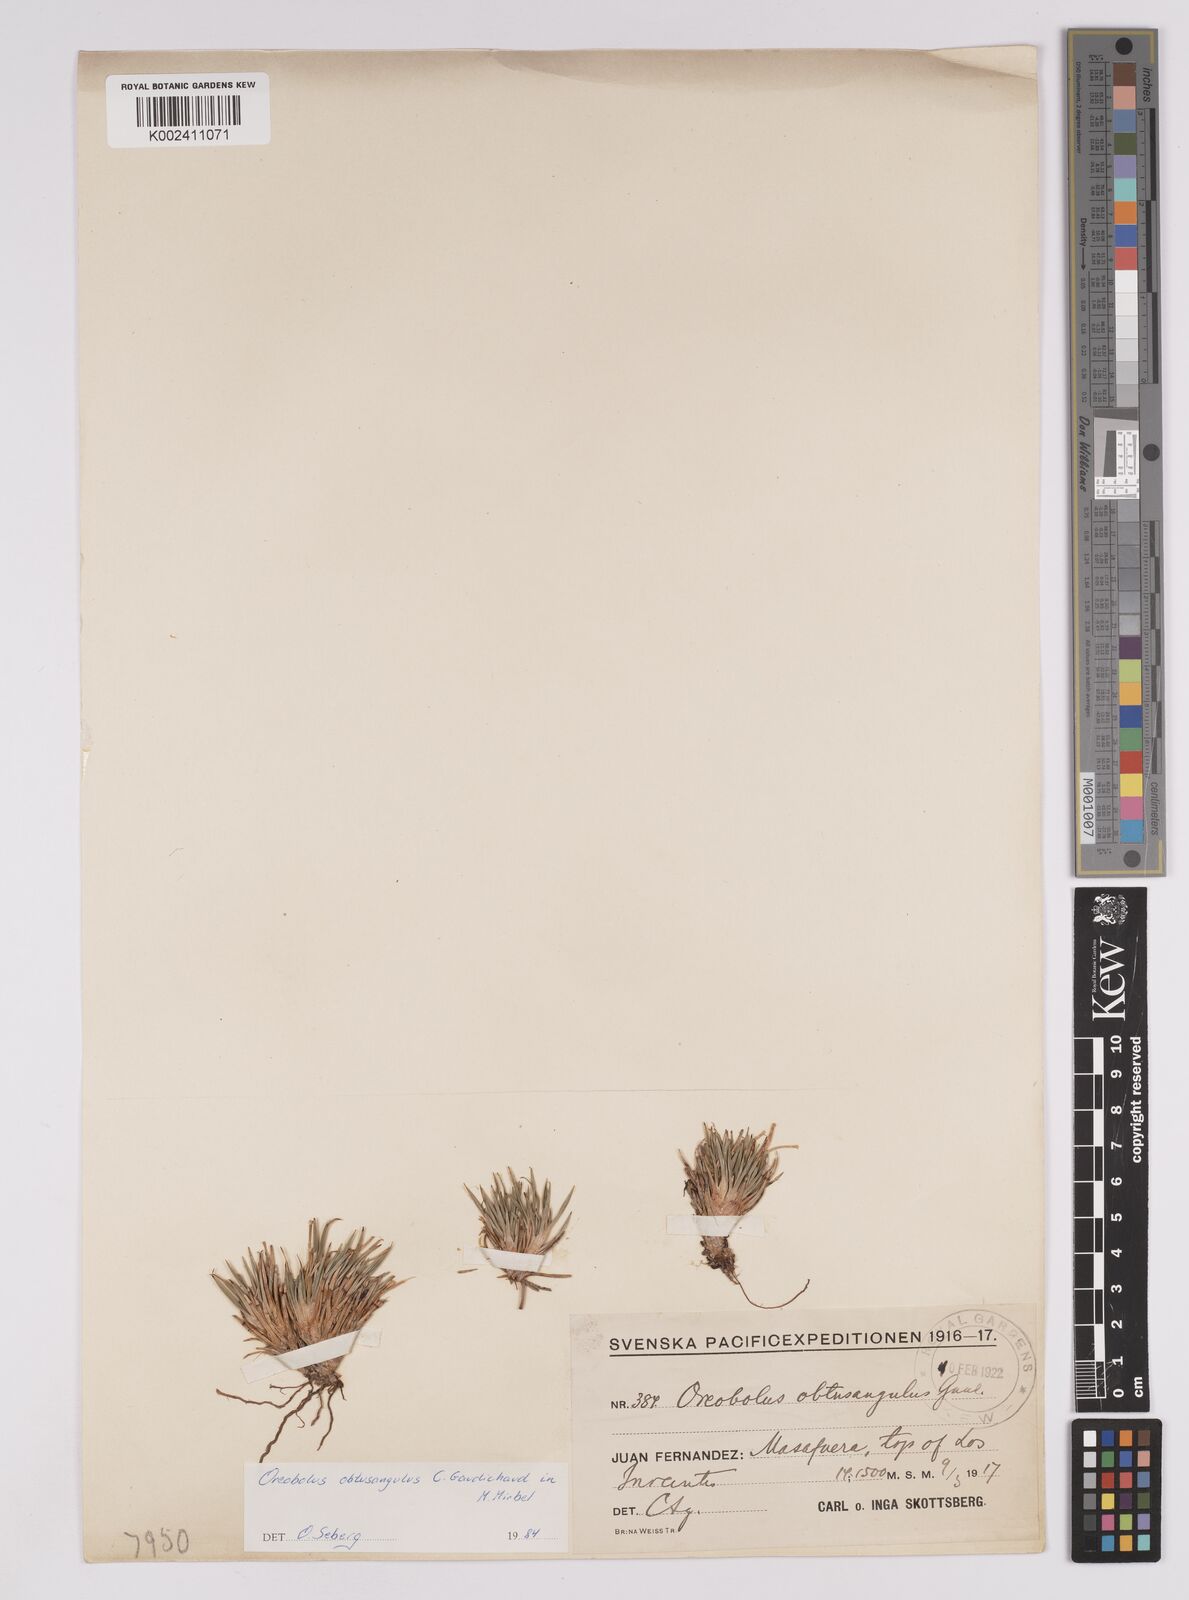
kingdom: Plantae
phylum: Tracheophyta
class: Liliopsida
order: Poales
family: Cyperaceae
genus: Oreobolus
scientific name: Oreobolus obtusangulus
